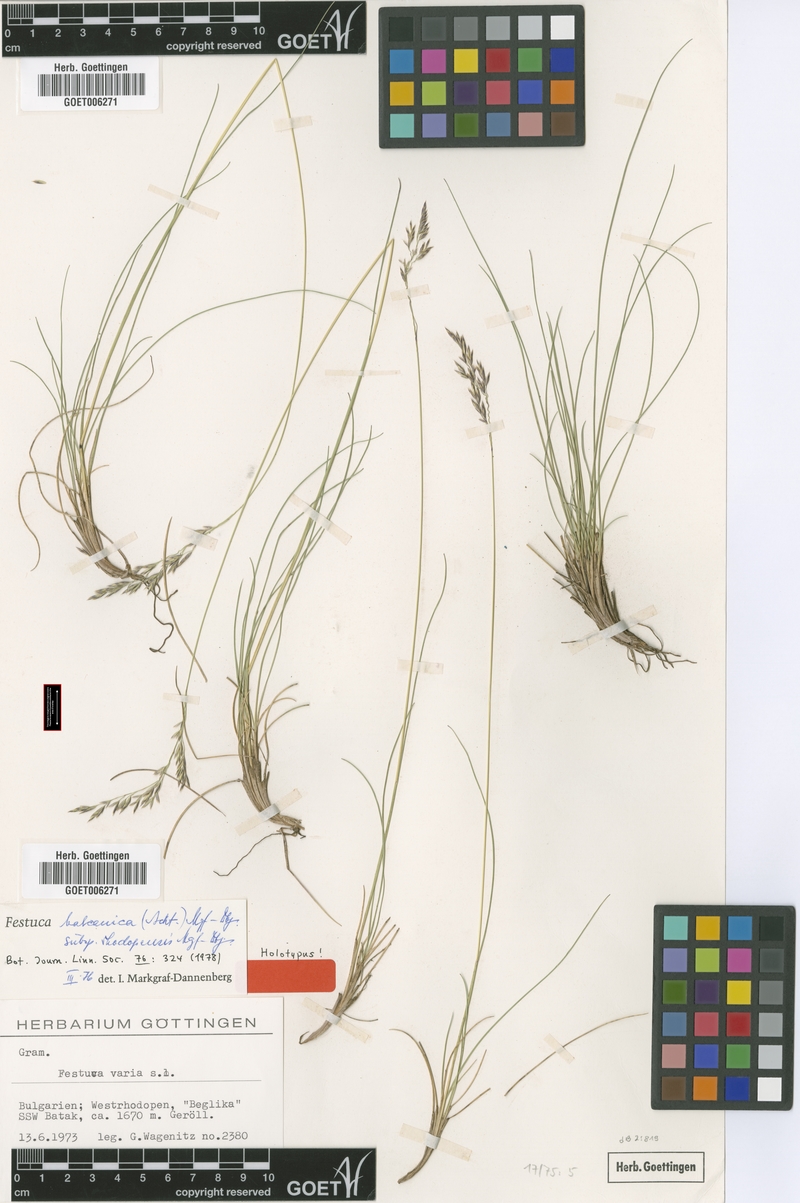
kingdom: Plantae
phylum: Tracheophyta
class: Liliopsida
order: Poales
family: Poaceae
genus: Festuca
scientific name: Festuca balcanica
